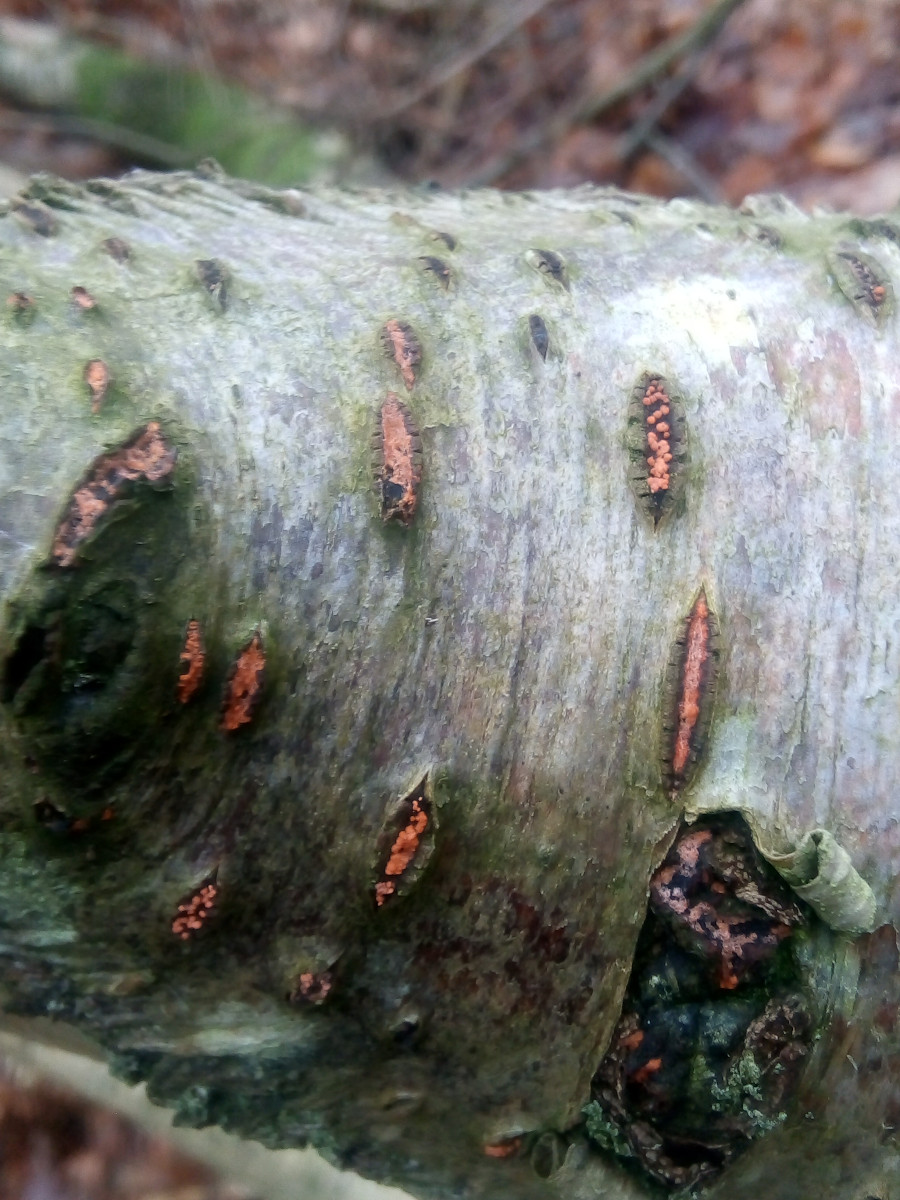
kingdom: Fungi
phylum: Ascomycota
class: Sordariomycetes
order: Hypocreales
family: Nectriaceae
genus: Dialonectria
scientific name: Dialonectria magnusiana
